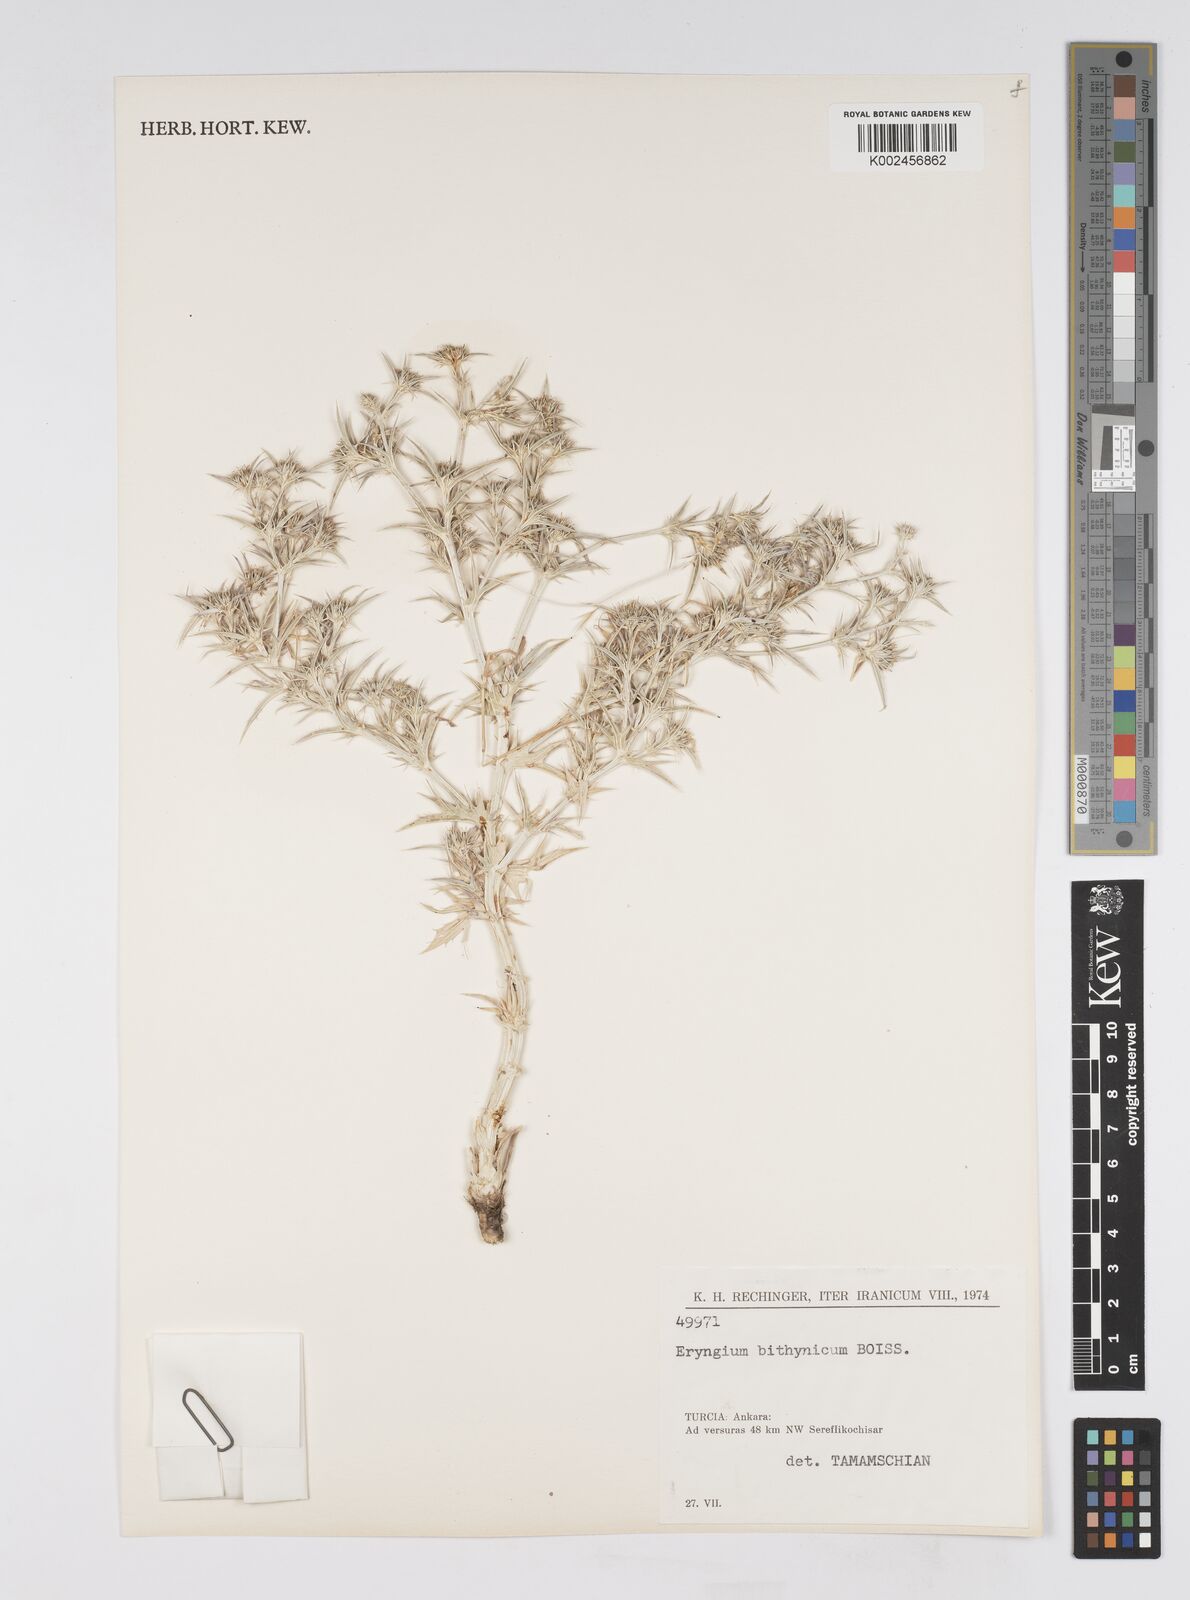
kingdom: Plantae
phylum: Tracheophyta
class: Magnoliopsida
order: Apiales
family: Apiaceae
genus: Eryngium
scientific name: Eryngium bithynicum
